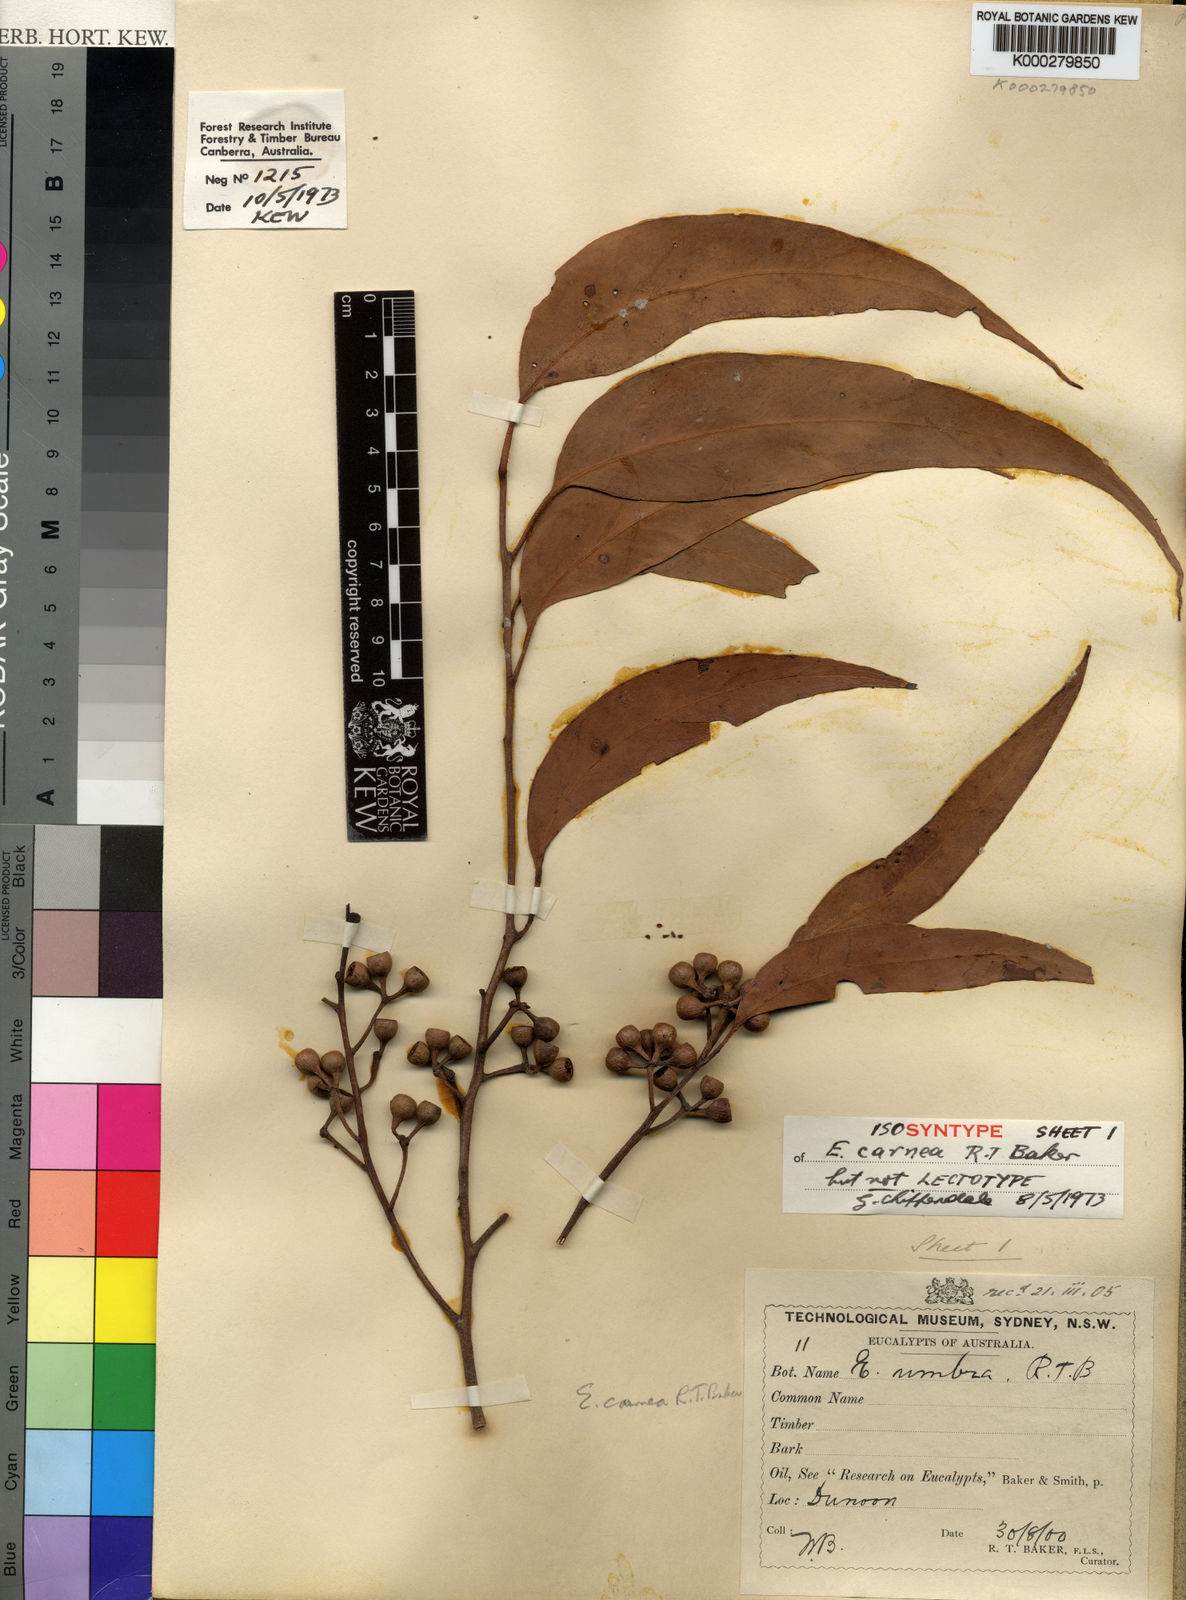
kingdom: Plantae
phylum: Tracheophyta
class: Magnoliopsida
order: Myrtales
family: Myrtaceae
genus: Eucalyptus
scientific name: Eucalyptus carnea
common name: Broad-leaved-white-mahogany
